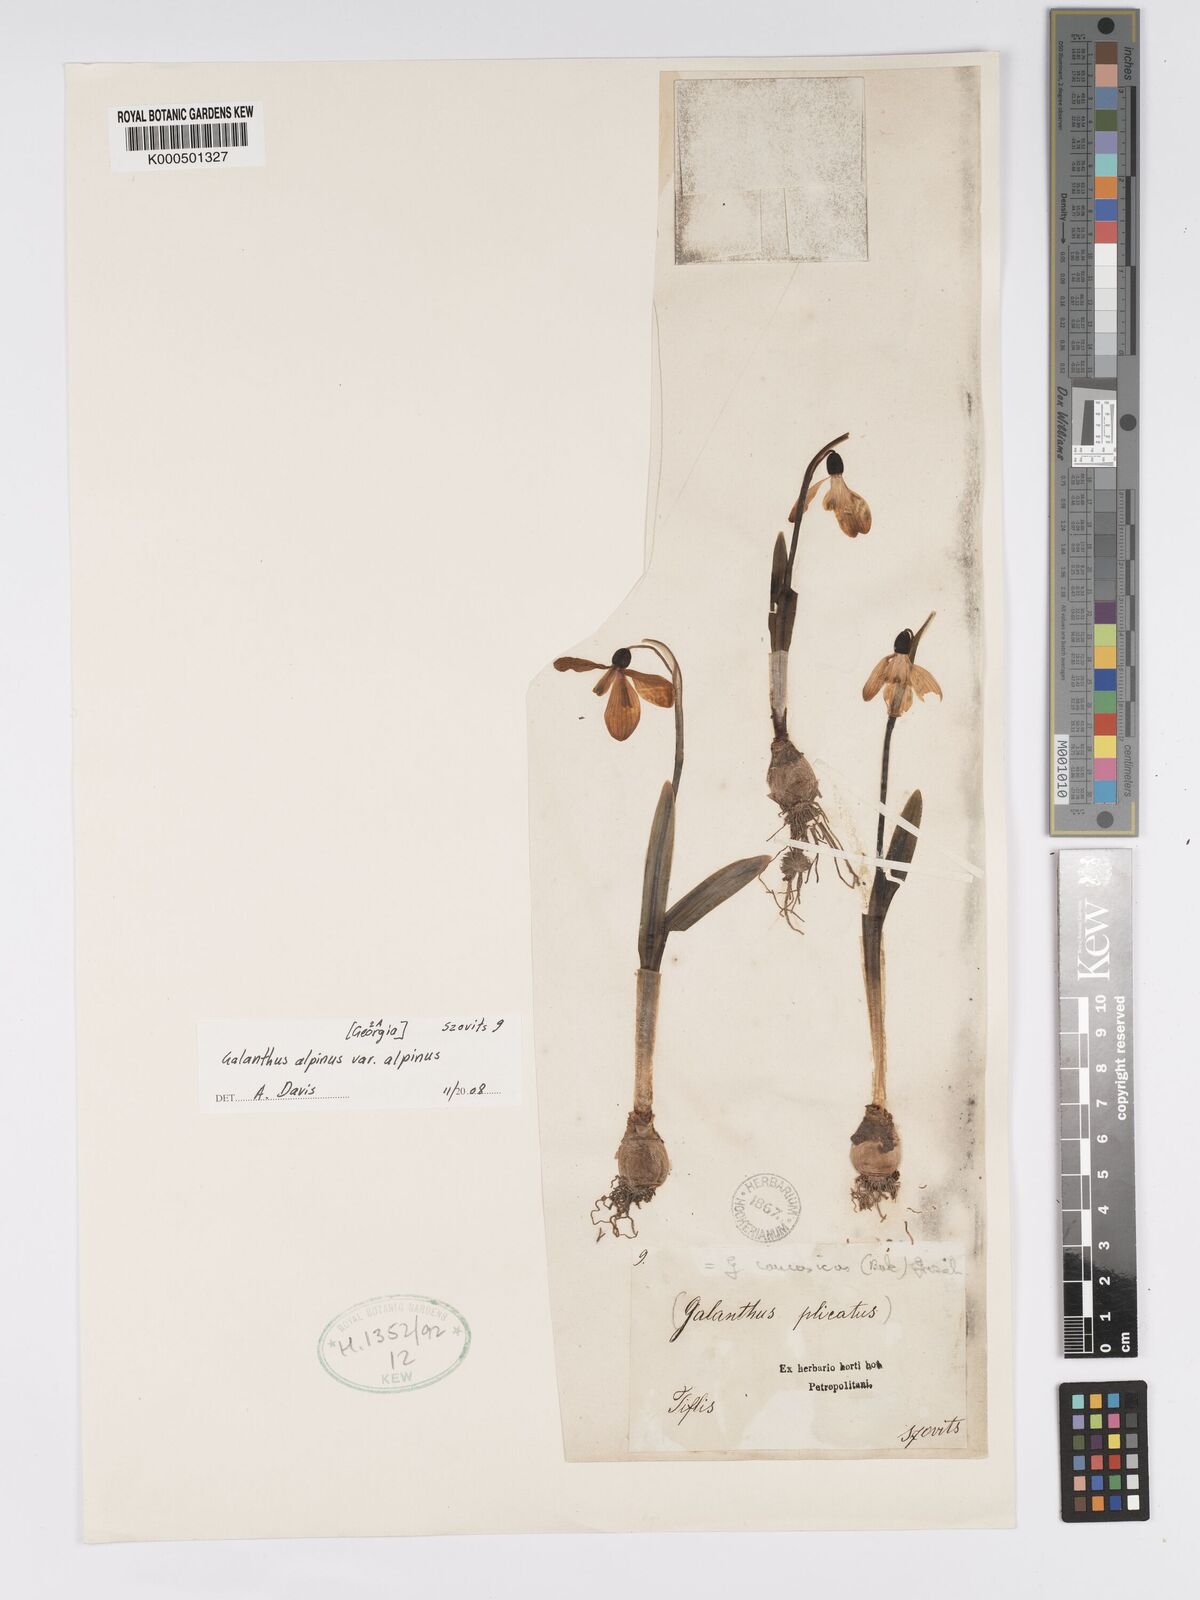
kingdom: Plantae
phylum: Tracheophyta
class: Liliopsida
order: Asparagales
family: Amaryllidaceae
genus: Galanthus
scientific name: Galanthus alpinus
